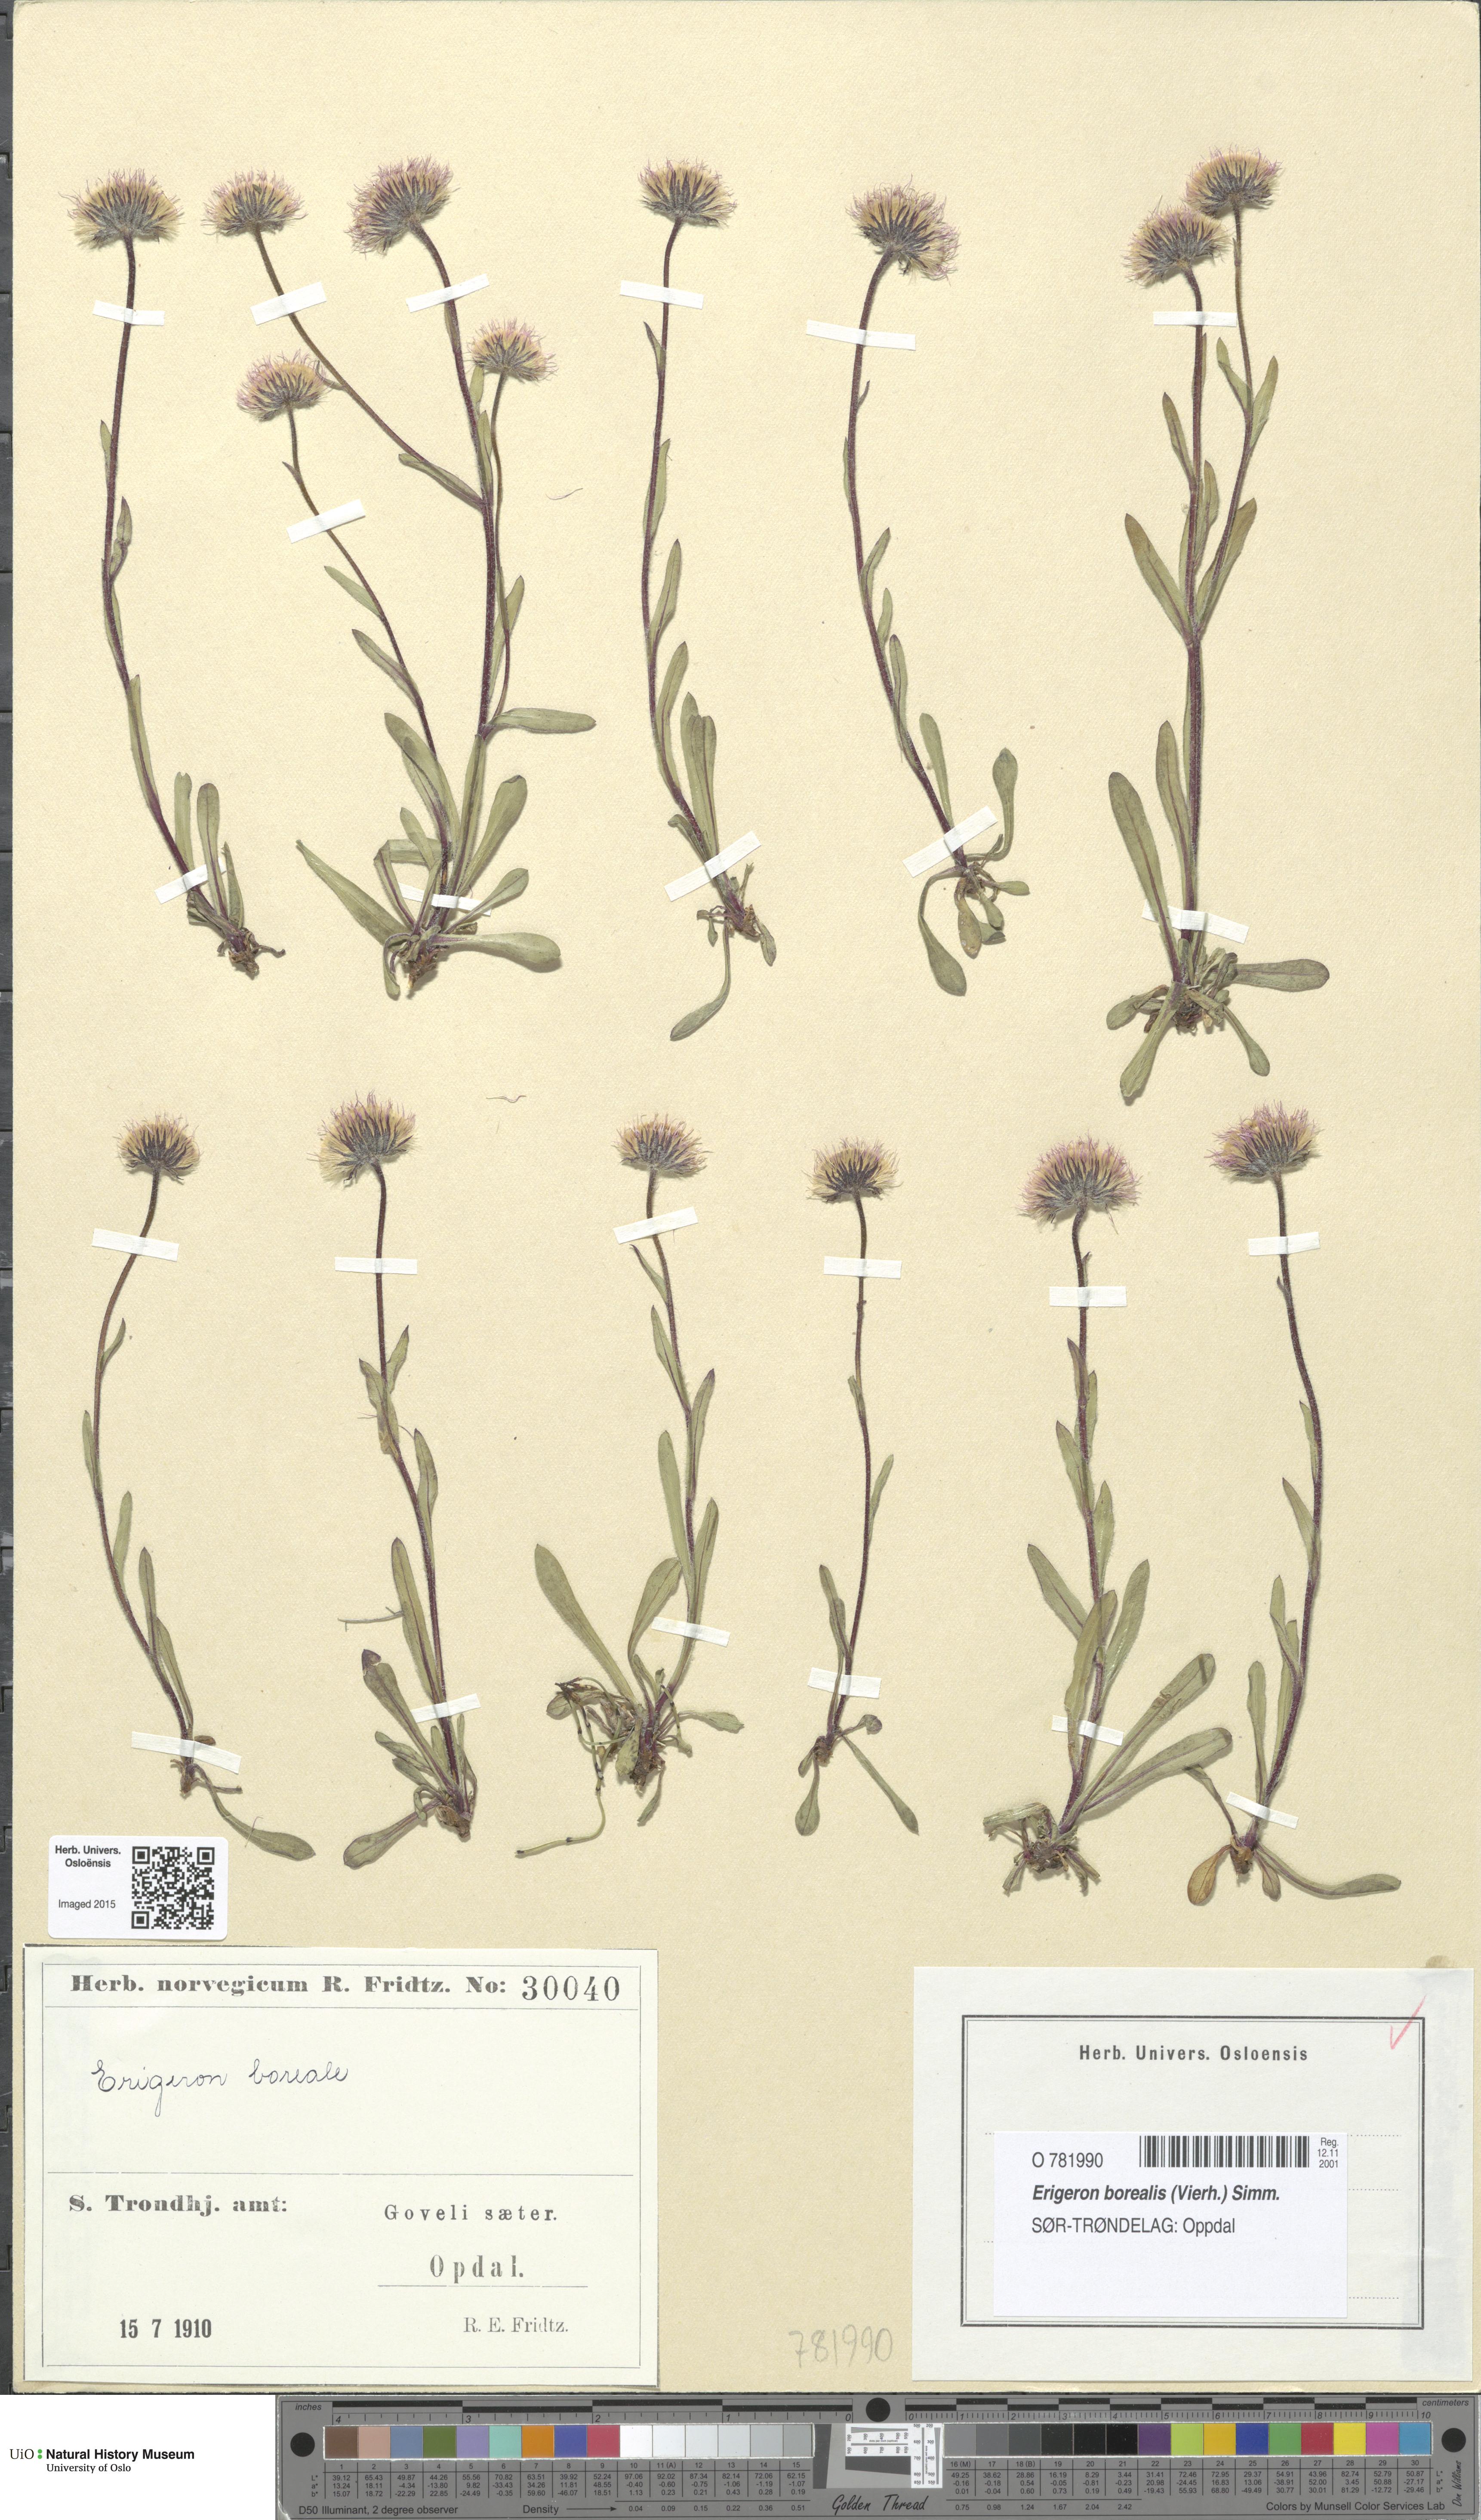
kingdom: Plantae
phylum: Tracheophyta
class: Magnoliopsida
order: Asterales
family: Asteraceae
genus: Erigeron
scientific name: Erigeron borealis
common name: Alpine fleabane
